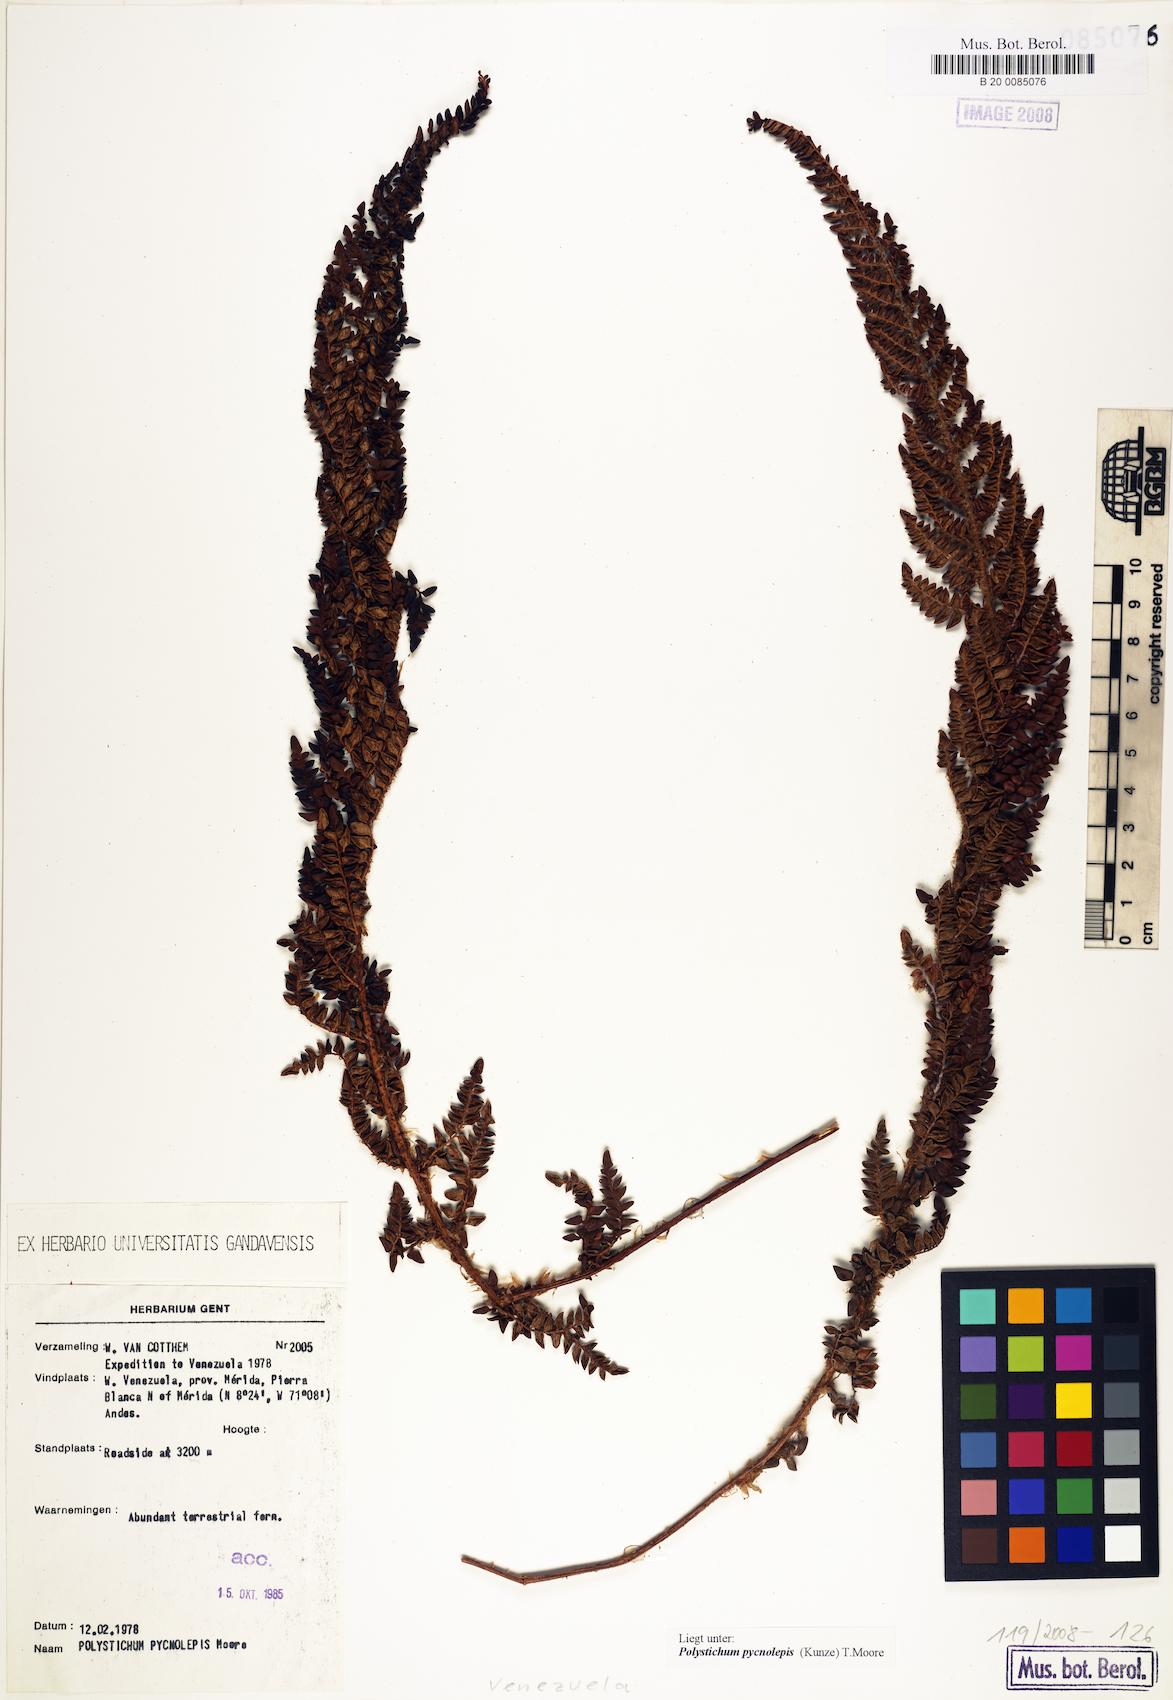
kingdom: Plantae
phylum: Tracheophyta
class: Polypodiopsida
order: Polypodiales
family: Dryopteridaceae
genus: Polystichum
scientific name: Polystichum pycnolepis
